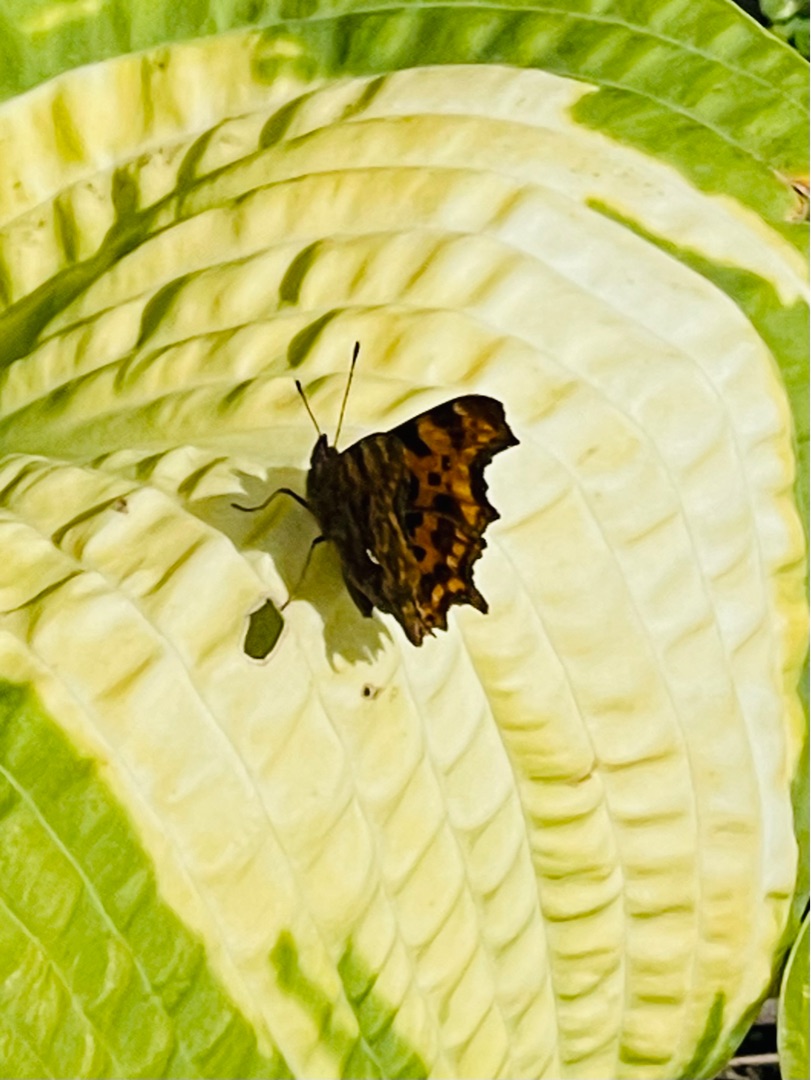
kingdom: Animalia
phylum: Arthropoda
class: Insecta
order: Lepidoptera
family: Nymphalidae
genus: Polygonia
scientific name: Polygonia c-album
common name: Det hvide C
